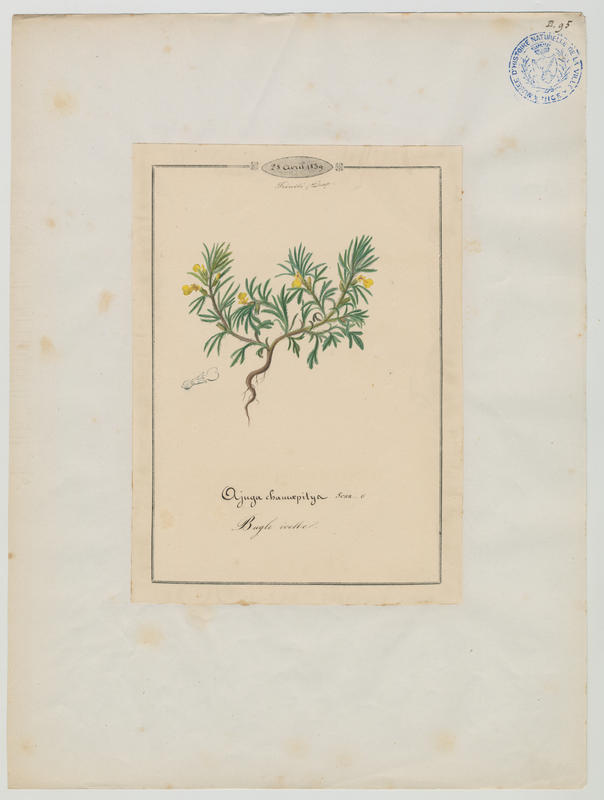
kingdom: Plantae
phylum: Tracheophyta
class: Magnoliopsida
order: Lamiales
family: Lamiaceae
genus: Ajuga
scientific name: Ajuga chamaepitys
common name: Ground-pine
